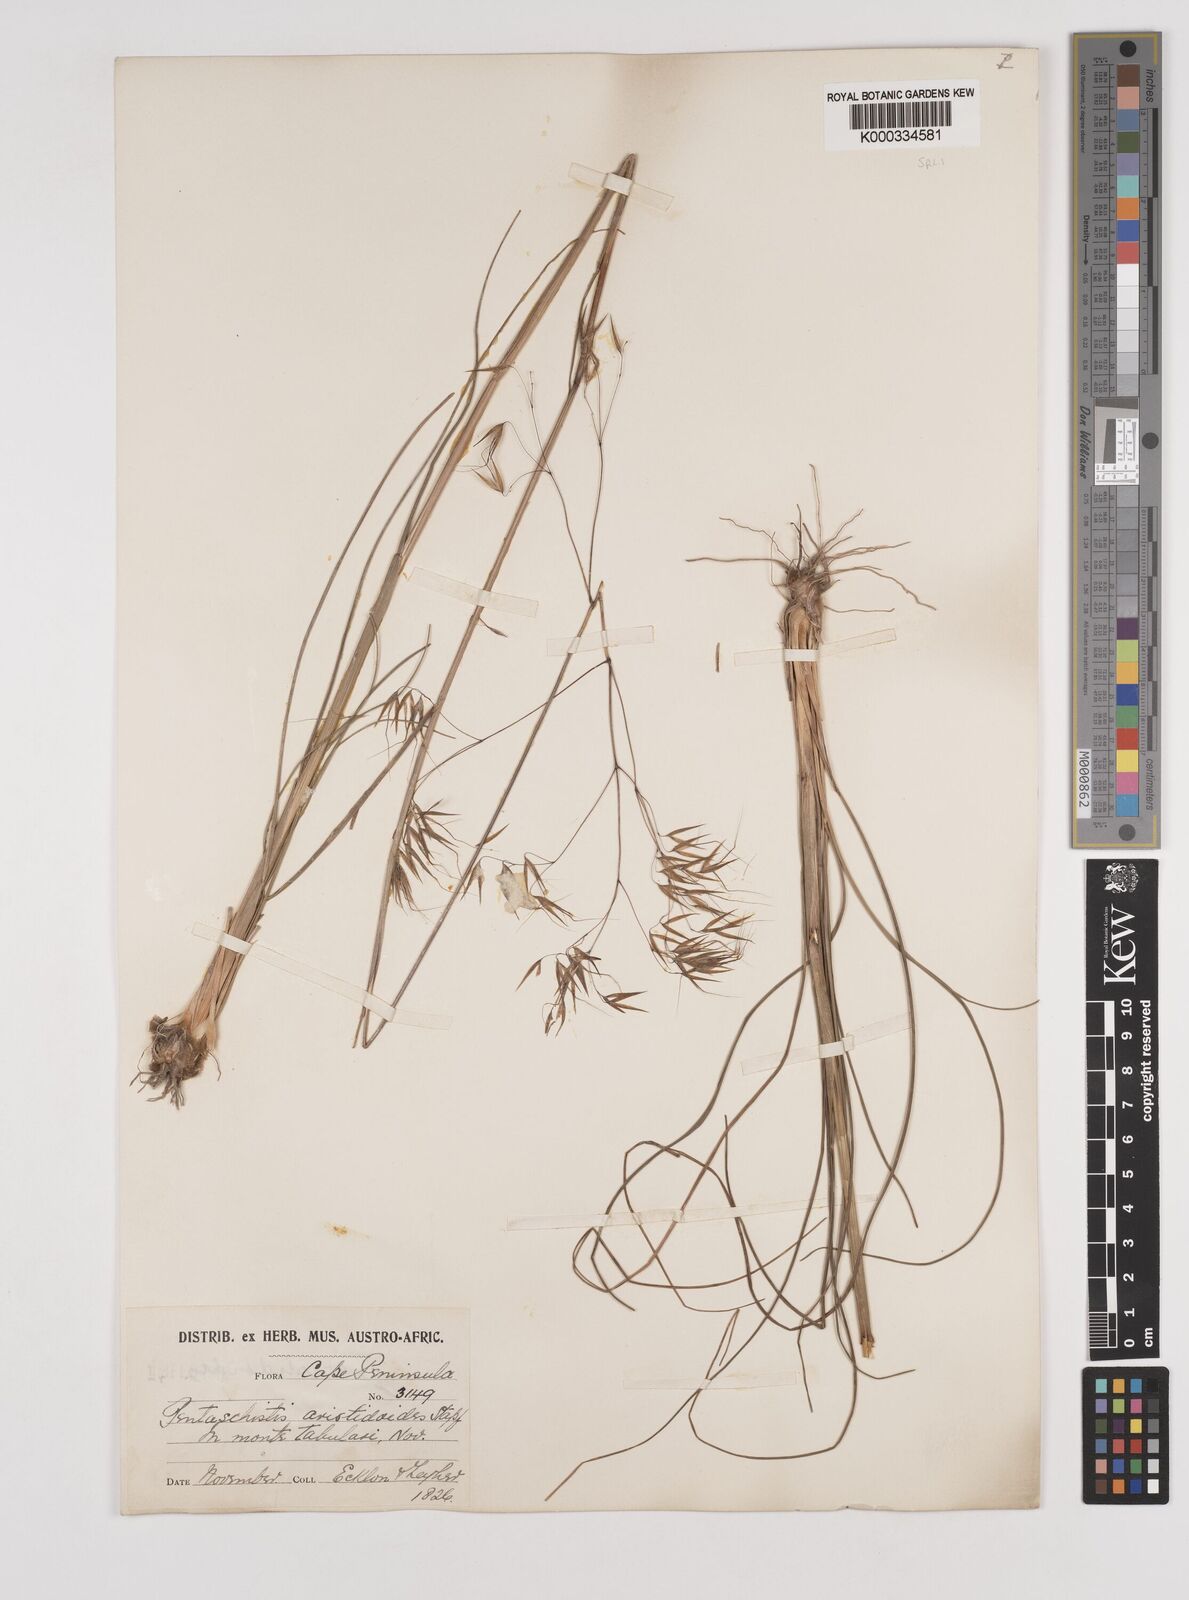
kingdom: Plantae
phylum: Tracheophyta
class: Liliopsida
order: Poales
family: Poaceae
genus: Pentameris
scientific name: Pentameris aristidoides
